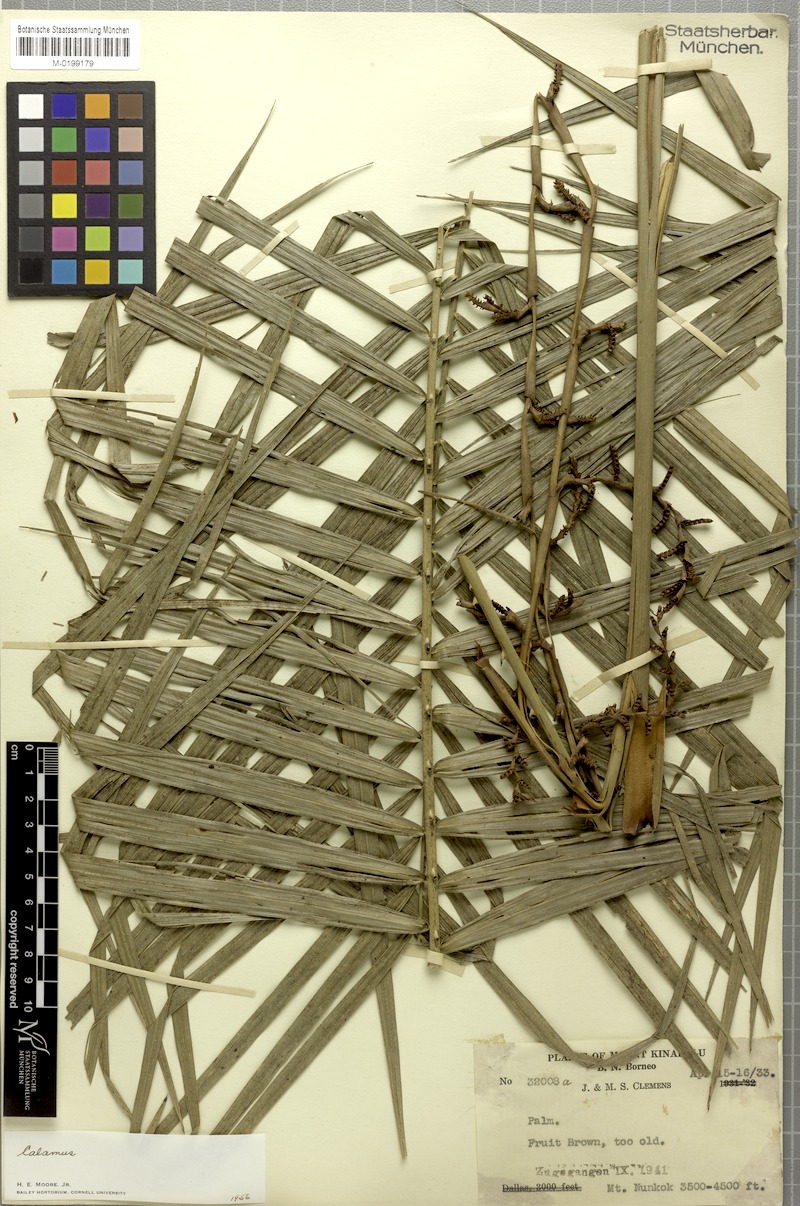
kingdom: Plantae
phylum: Tracheophyta
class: Liliopsida
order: Arecales
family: Arecaceae
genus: Calamus
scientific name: Calamus
